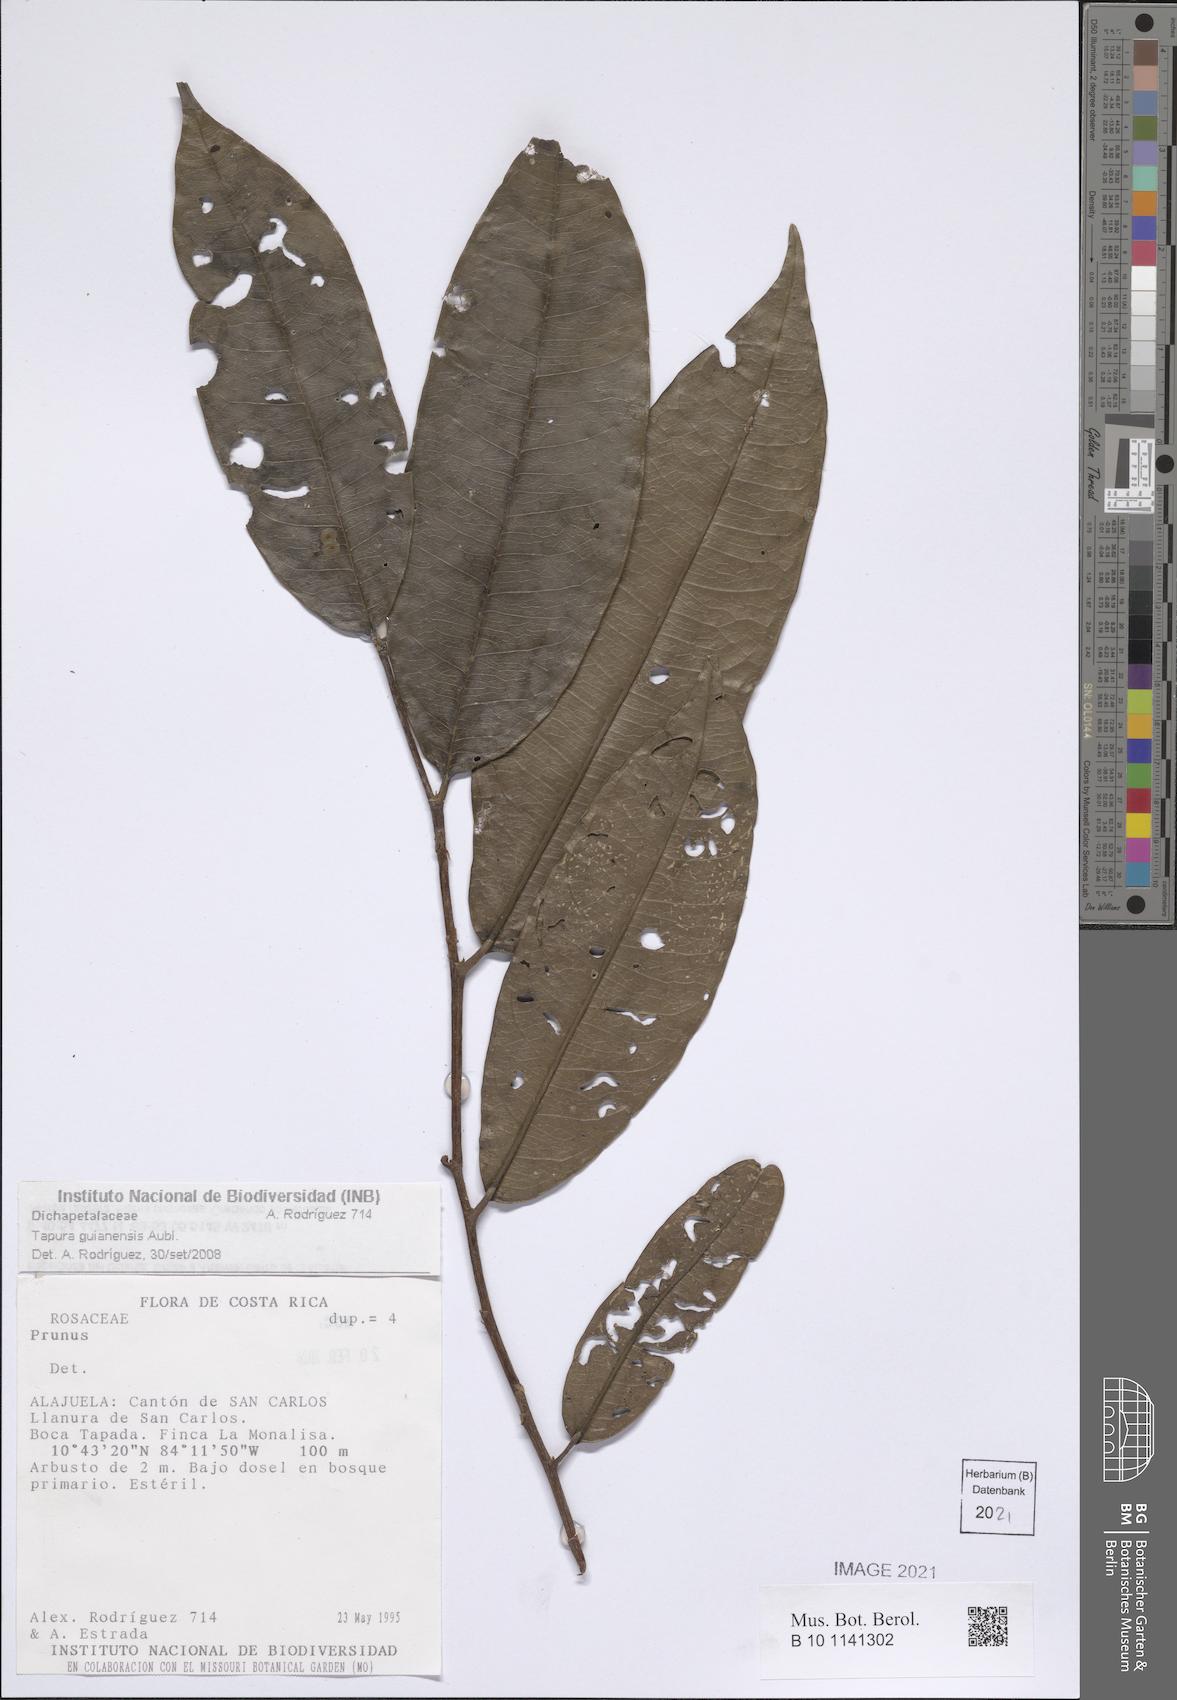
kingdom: Plantae
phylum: Tracheophyta
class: Magnoliopsida
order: Sapindales
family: Anacardiaceae
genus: Tapirira
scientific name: Tapirira guianensis
